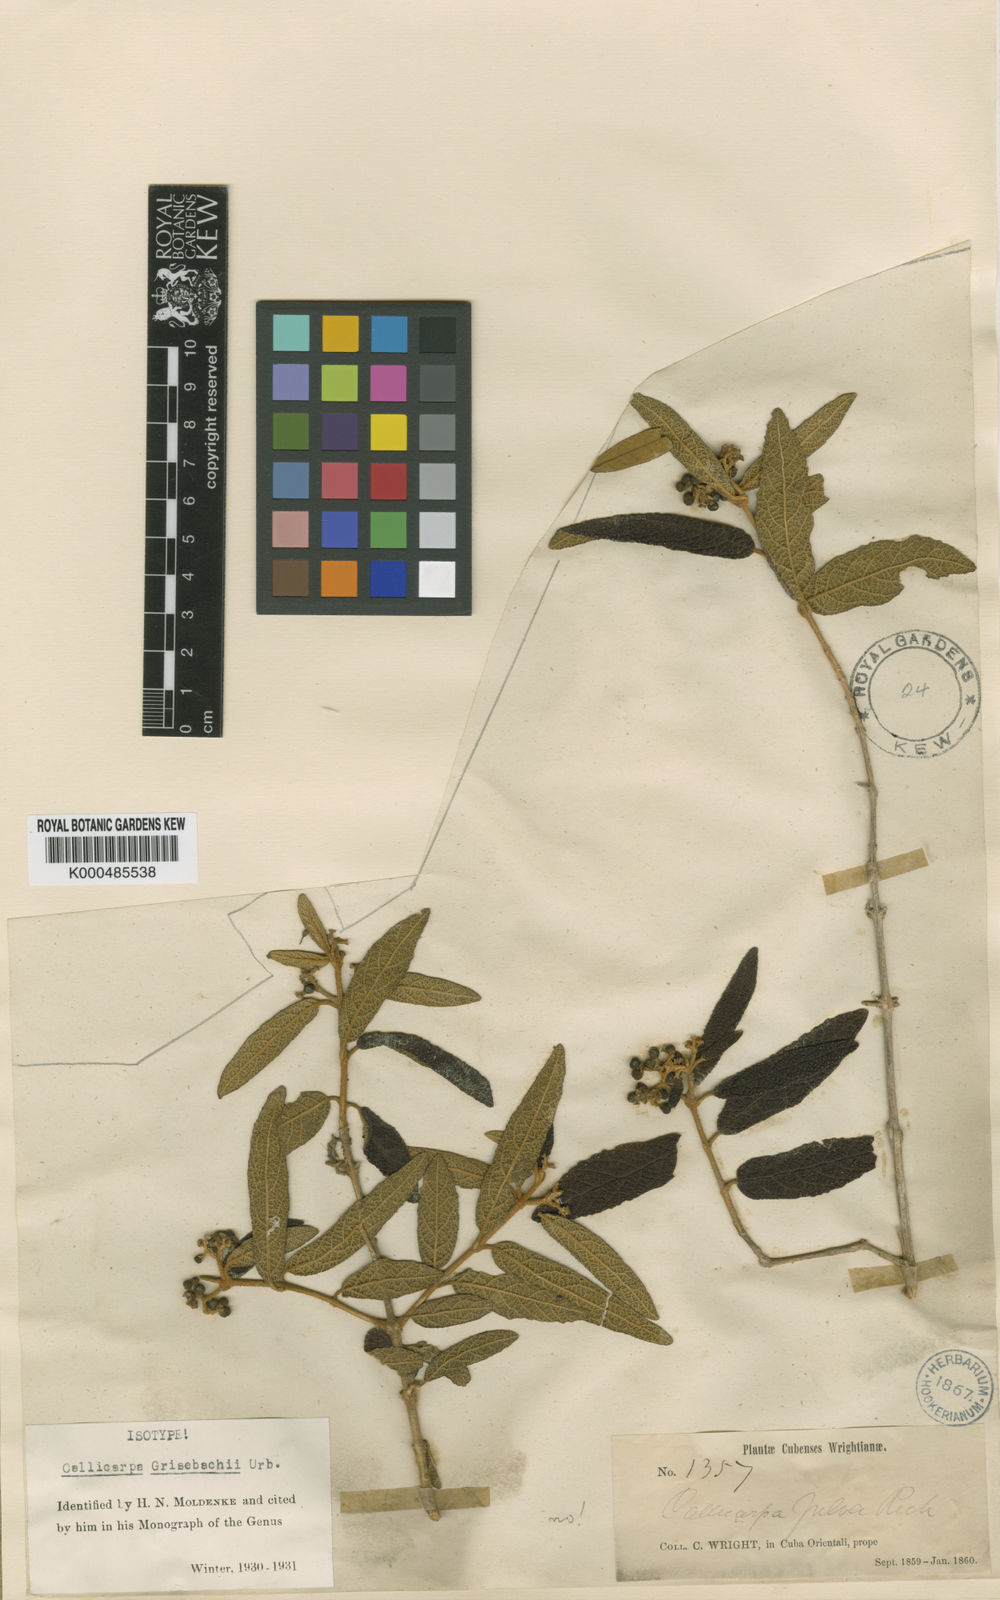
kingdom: Plantae
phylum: Tracheophyta
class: Magnoliopsida
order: Lamiales
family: Lamiaceae
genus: Callicarpa
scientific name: Callicarpa grisebachii
